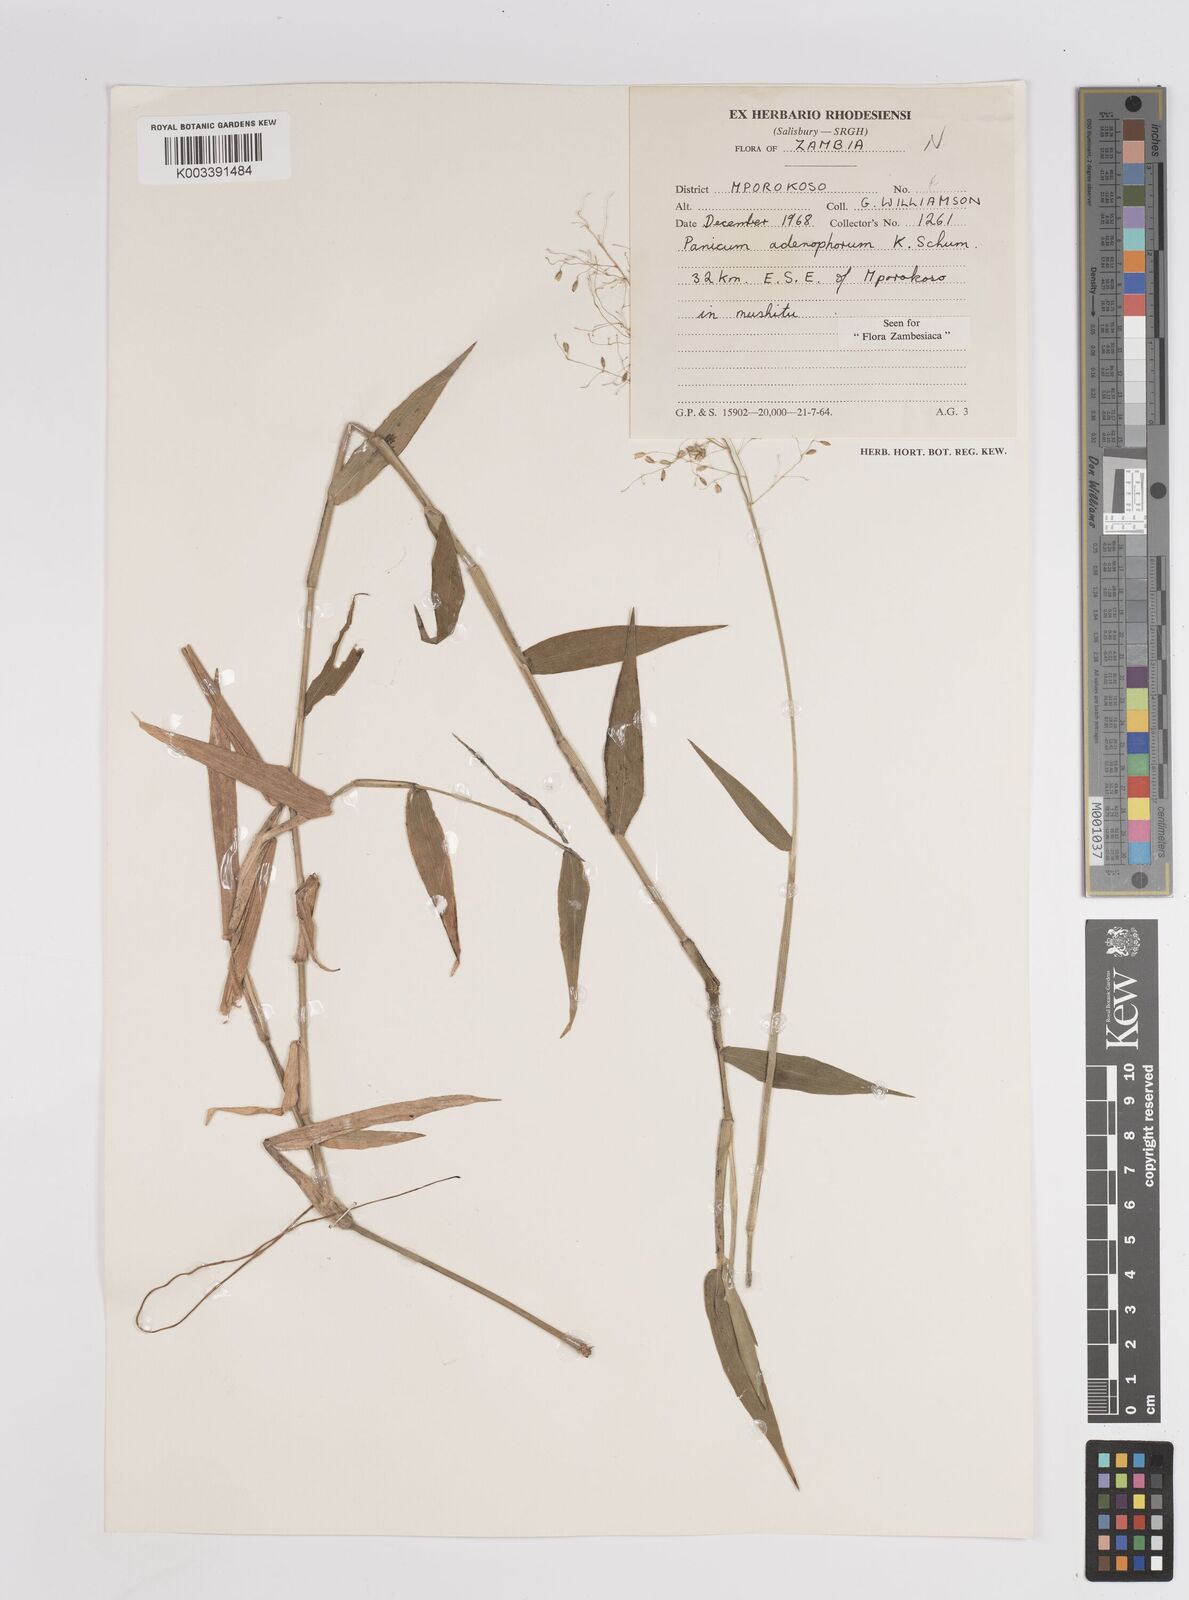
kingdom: Plantae
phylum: Tracheophyta
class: Liliopsida
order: Poales
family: Poaceae
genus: Adenochloa
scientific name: Adenochloa adenophora
